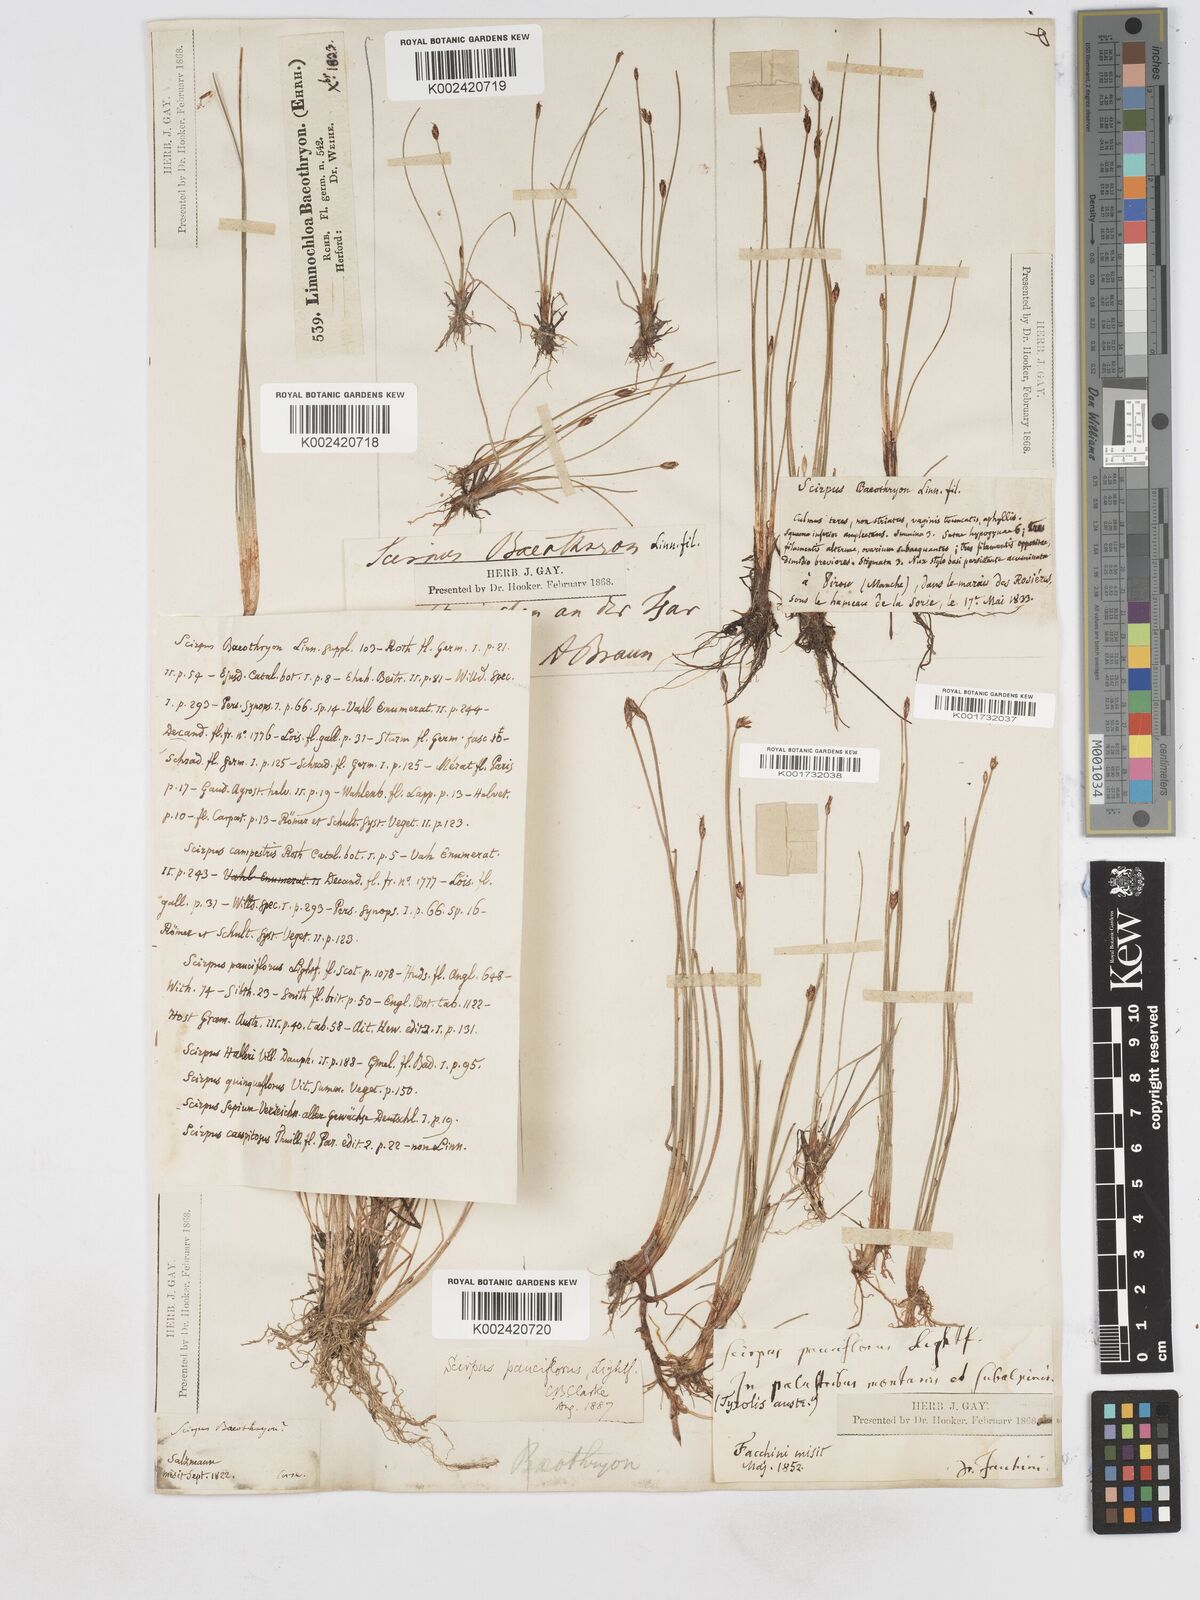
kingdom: Plantae
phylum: Tracheophyta
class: Liliopsida
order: Poales
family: Cyperaceae
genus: Eleocharis
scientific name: Eleocharis quinqueflora
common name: Few-flowered spike-rush
